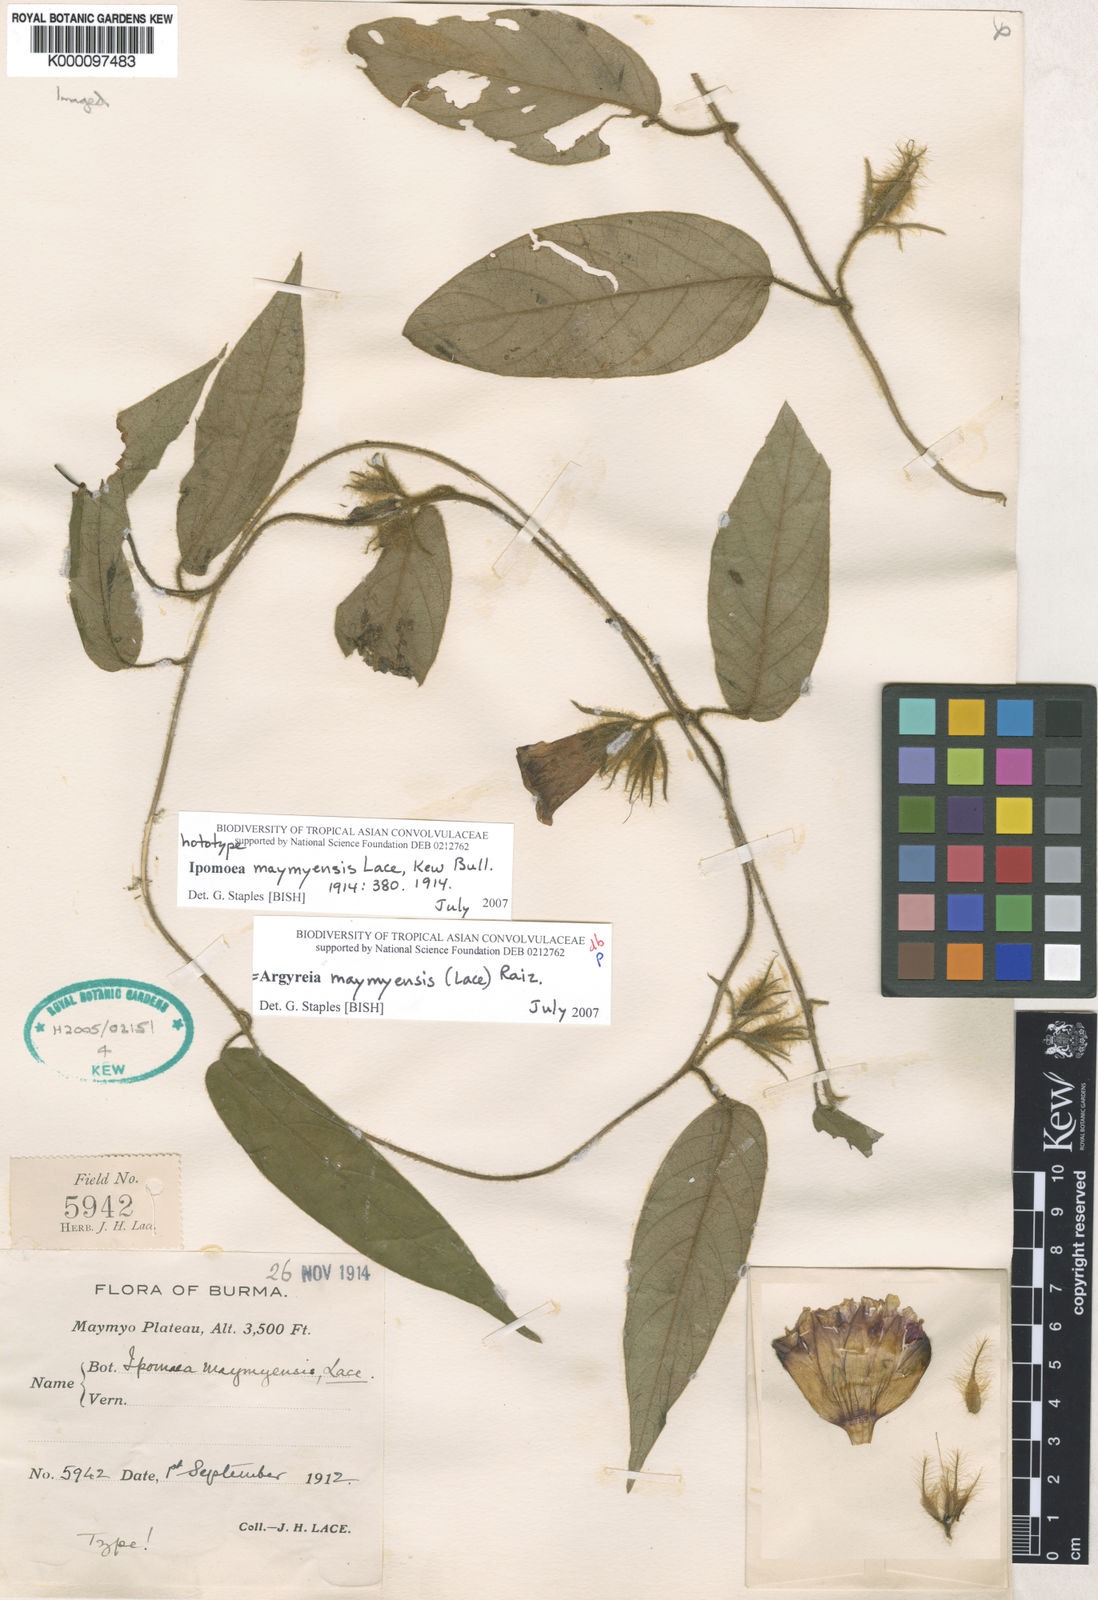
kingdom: Plantae
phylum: Tracheophyta
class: Magnoliopsida
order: Solanales
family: Convolvulaceae
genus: Argyreia
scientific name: Argyreia maymyensis
